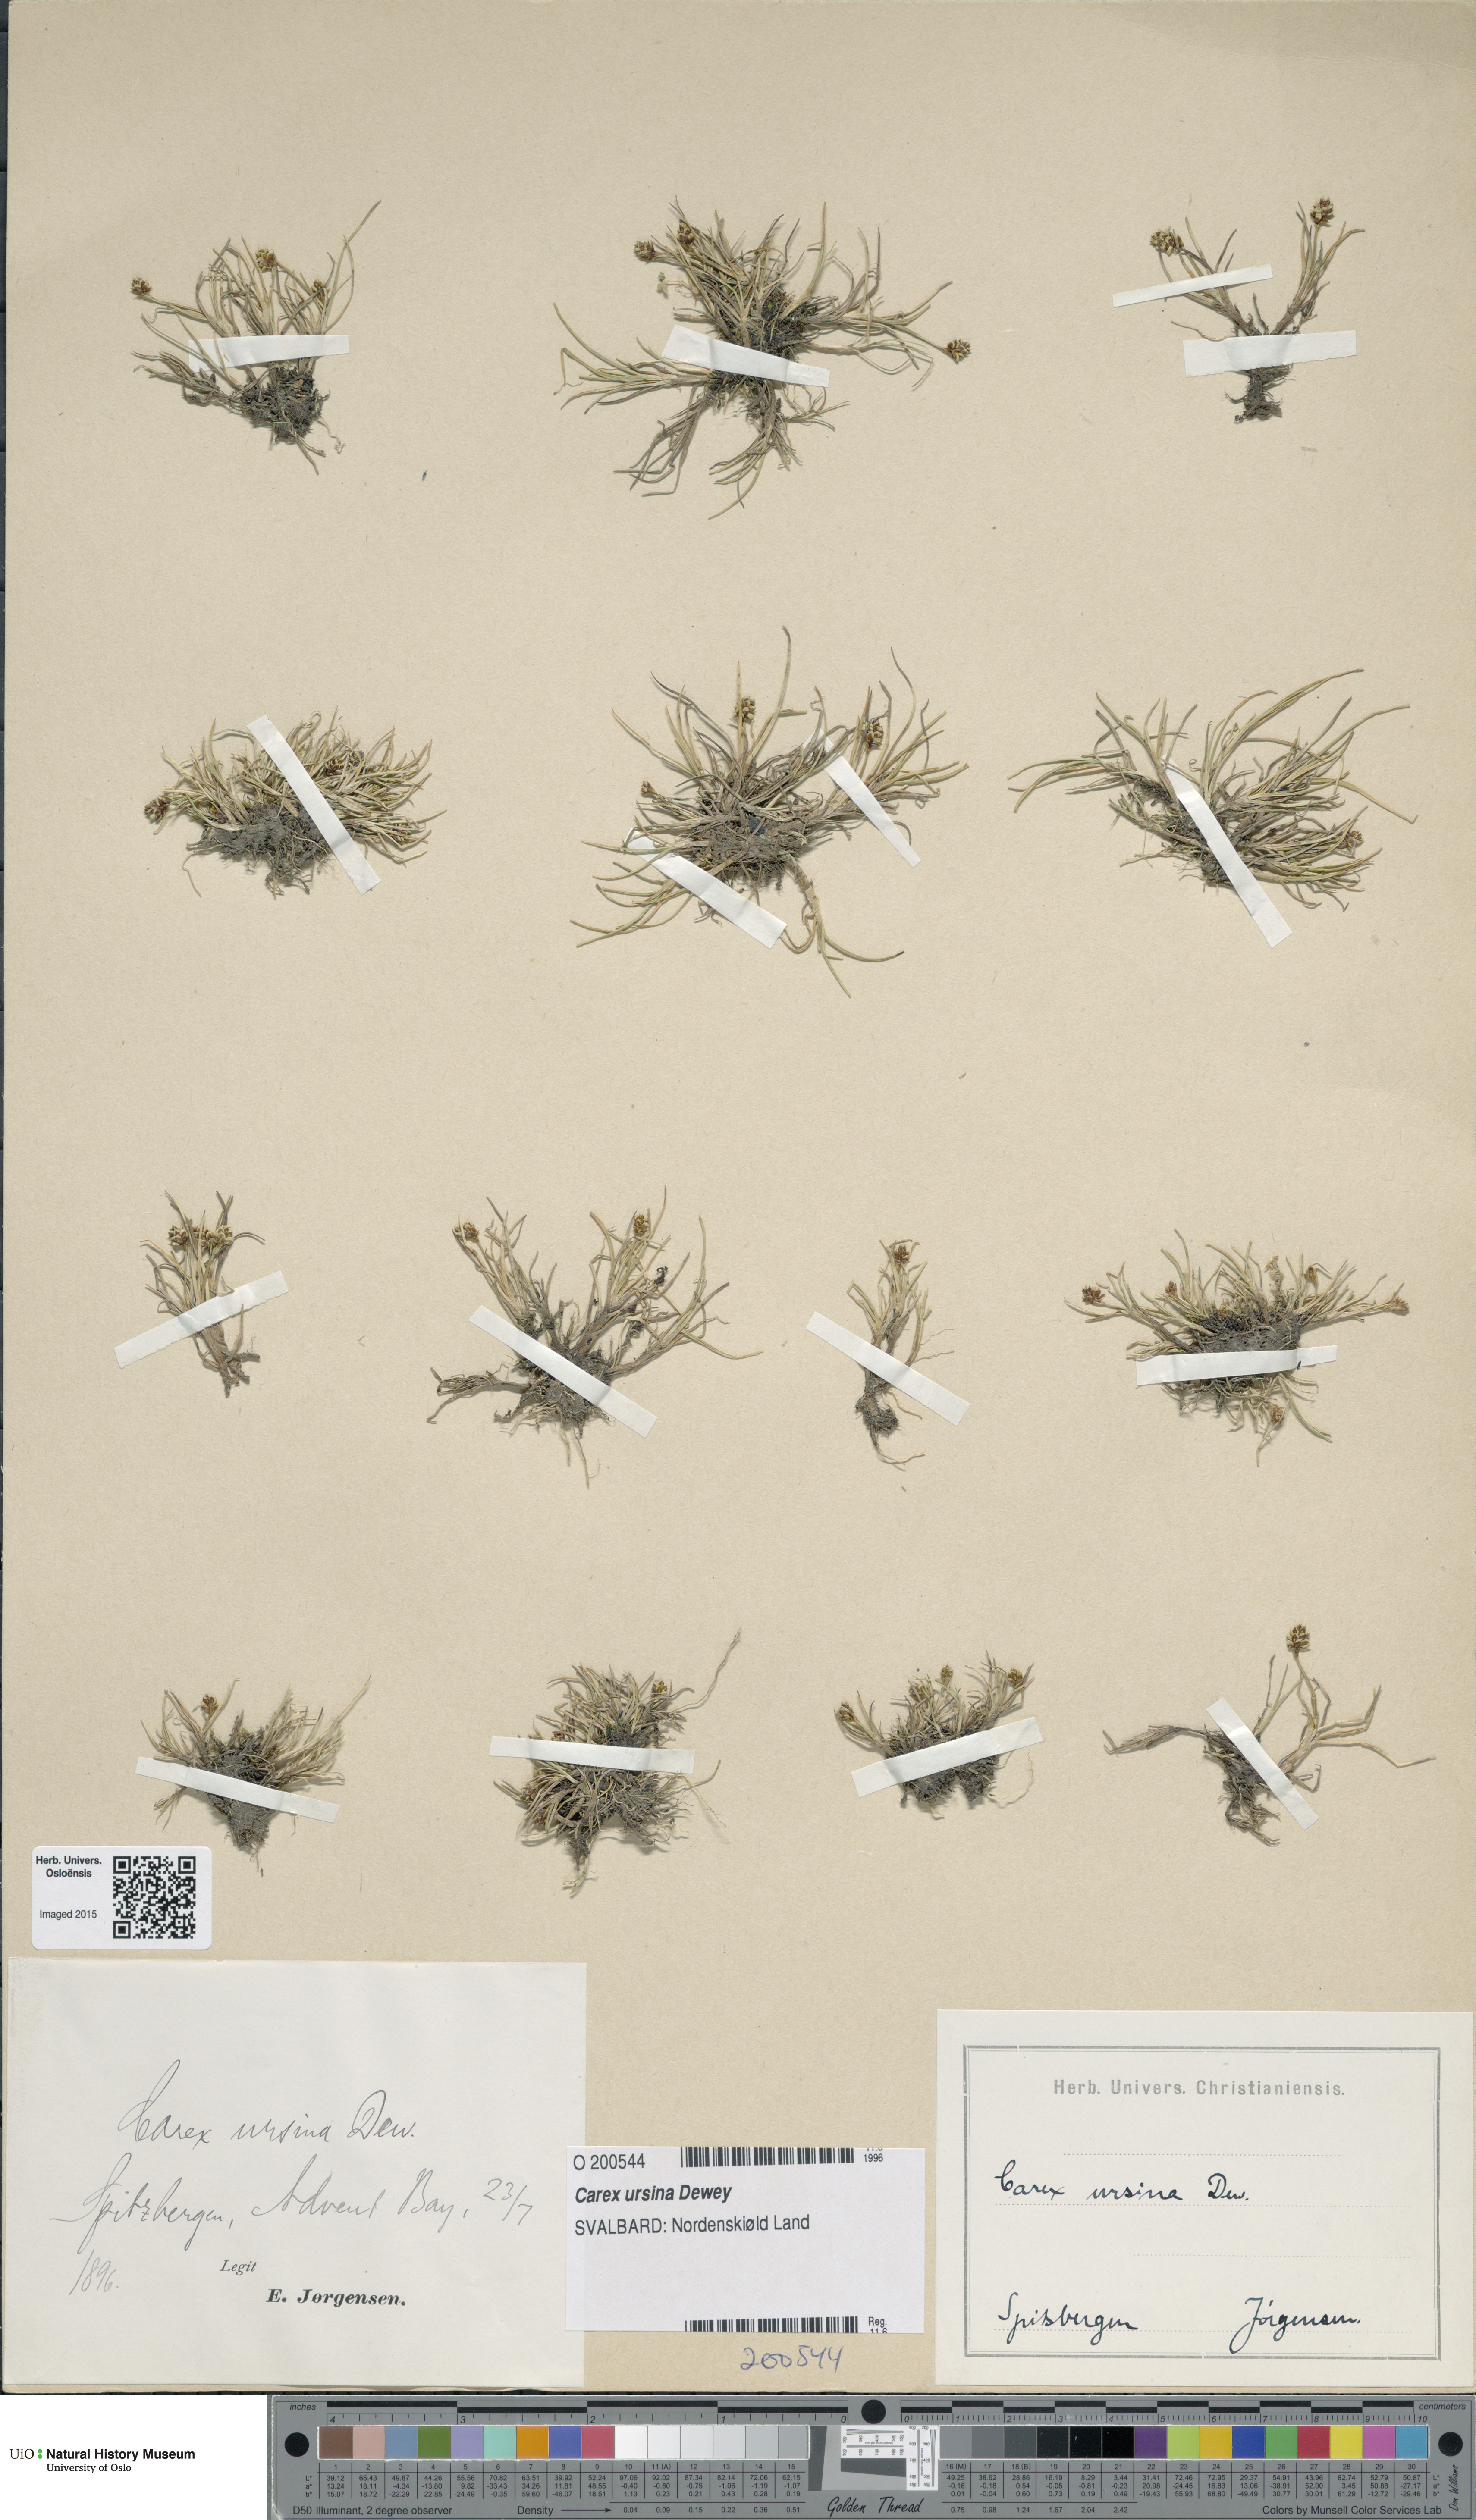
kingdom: Plantae
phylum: Tracheophyta
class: Liliopsida
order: Poales
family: Cyperaceae
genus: Carex
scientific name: Carex ursina
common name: Bear sedge
